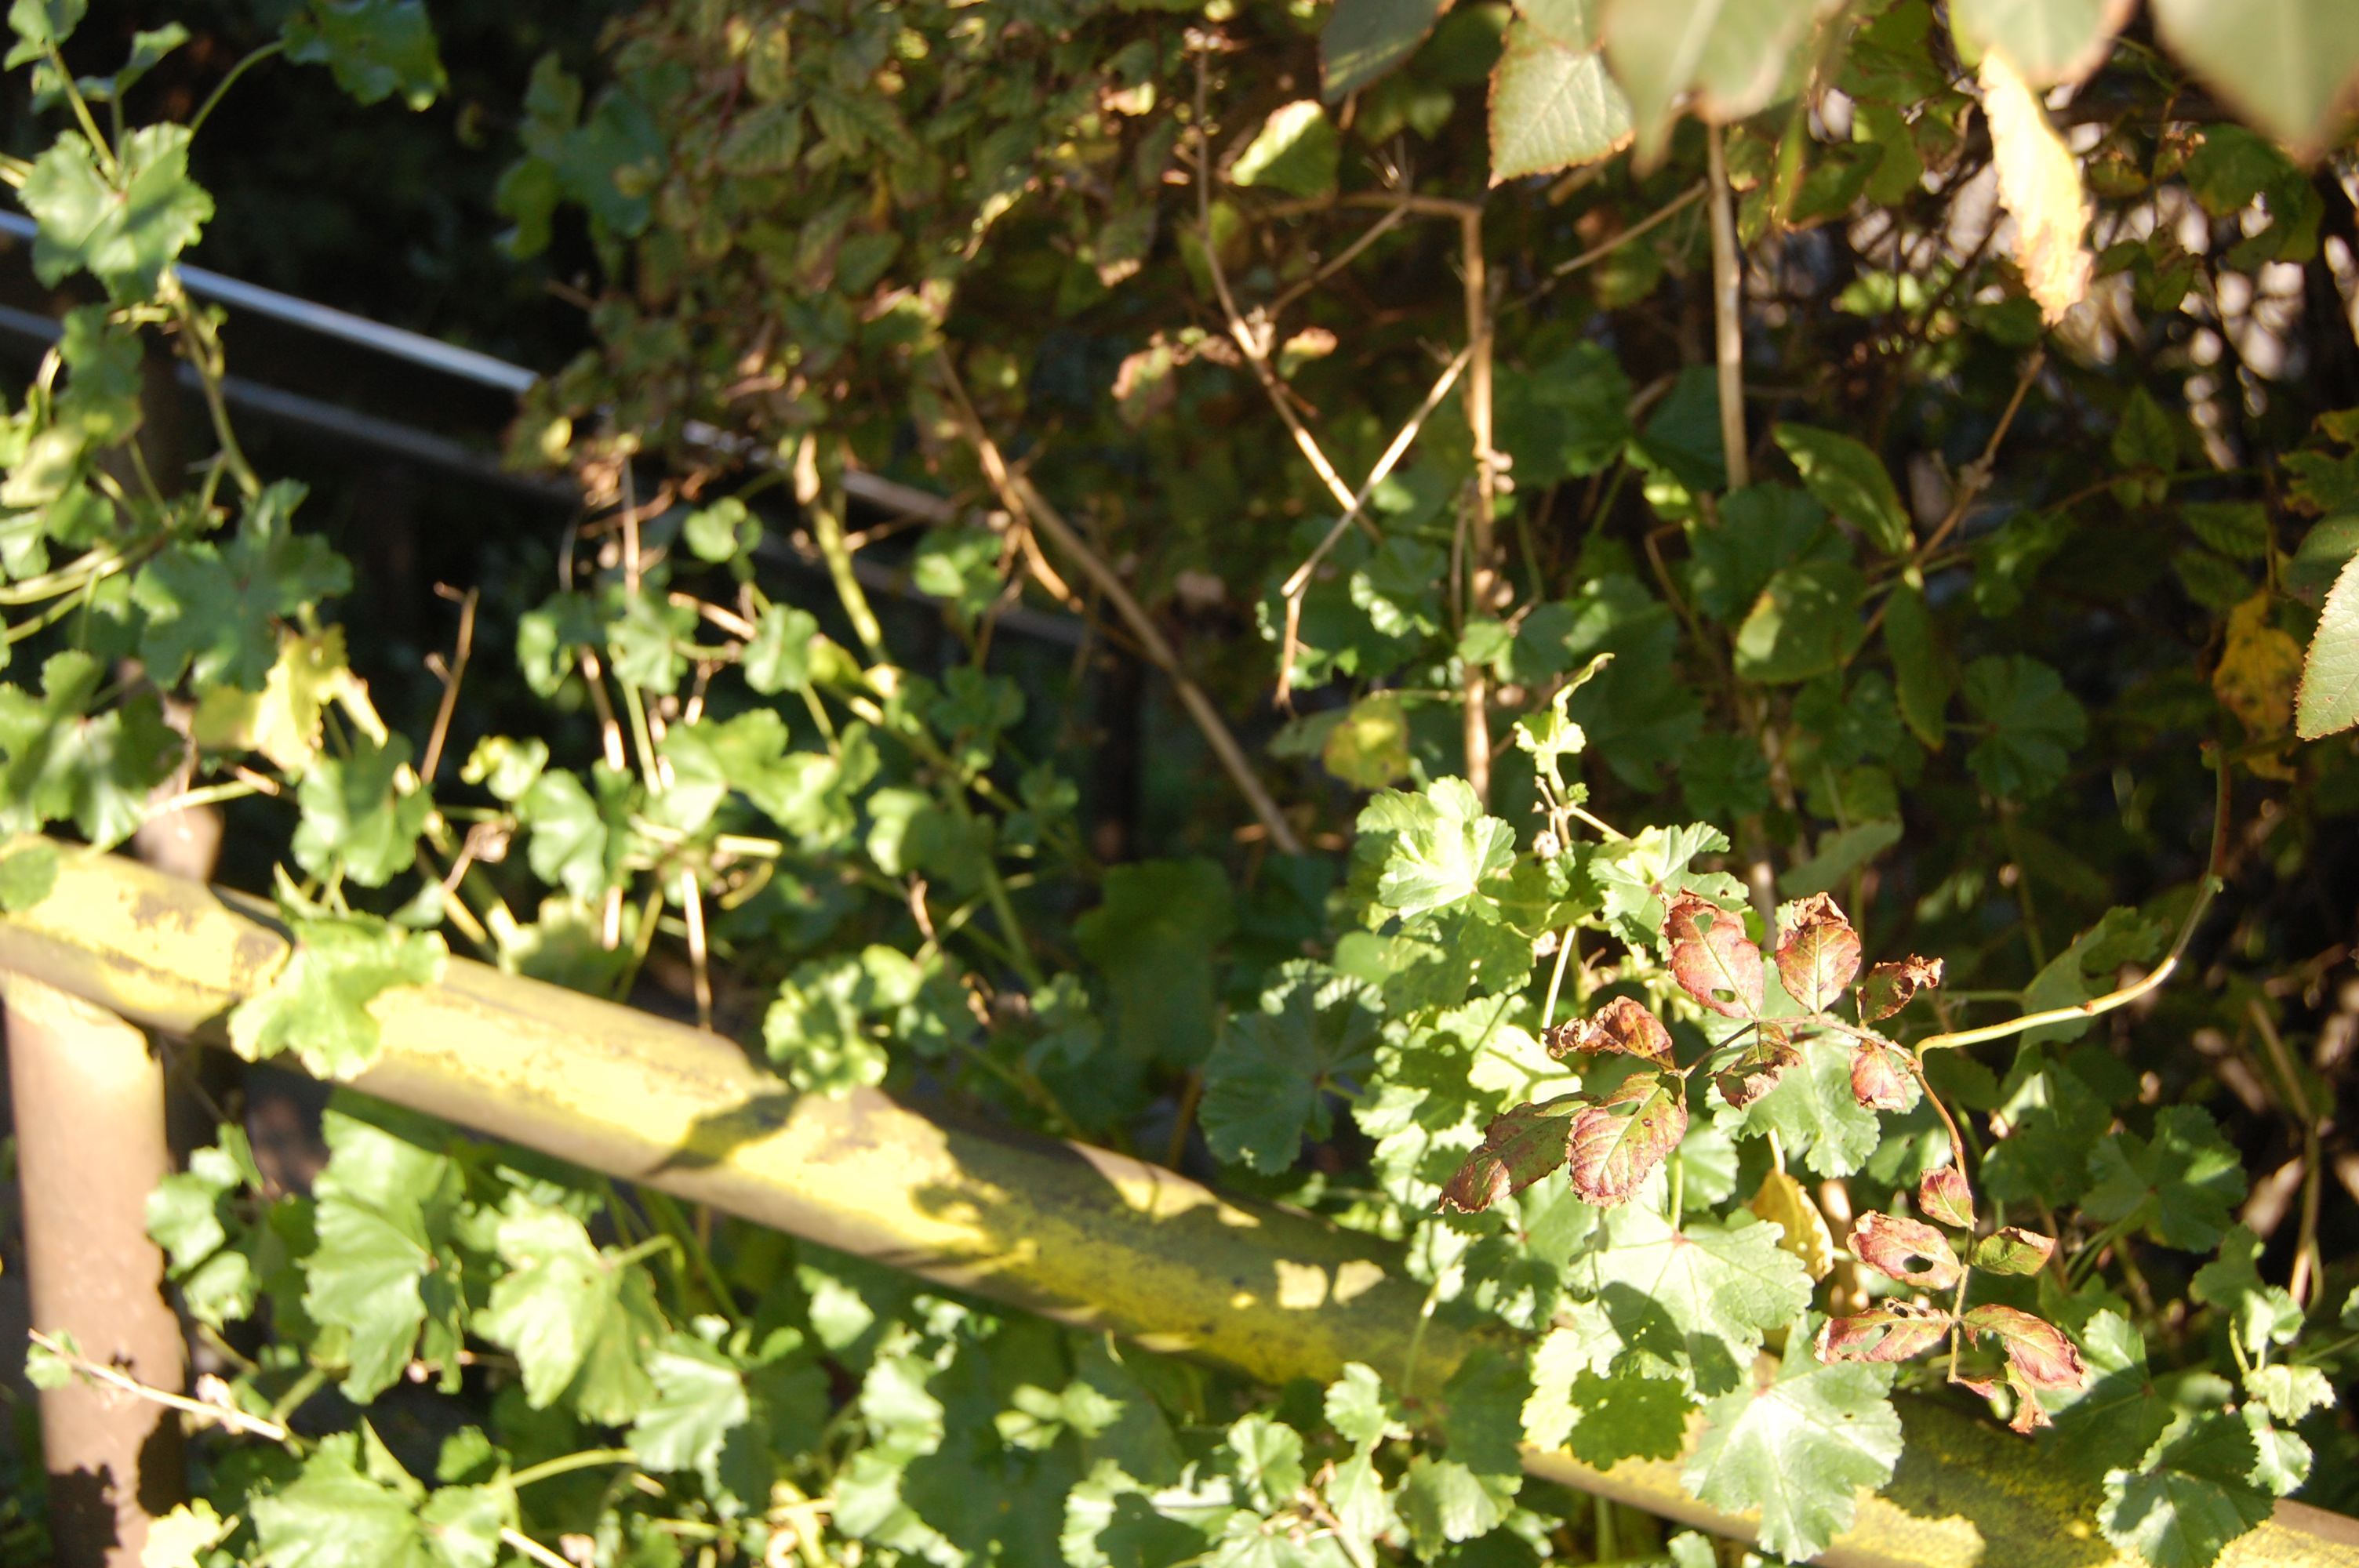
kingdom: Plantae
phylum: Tracheophyta
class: Magnoliopsida
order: Malvales
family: Malvaceae
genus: Malva
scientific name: Malva sylvestris
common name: Common mallow
